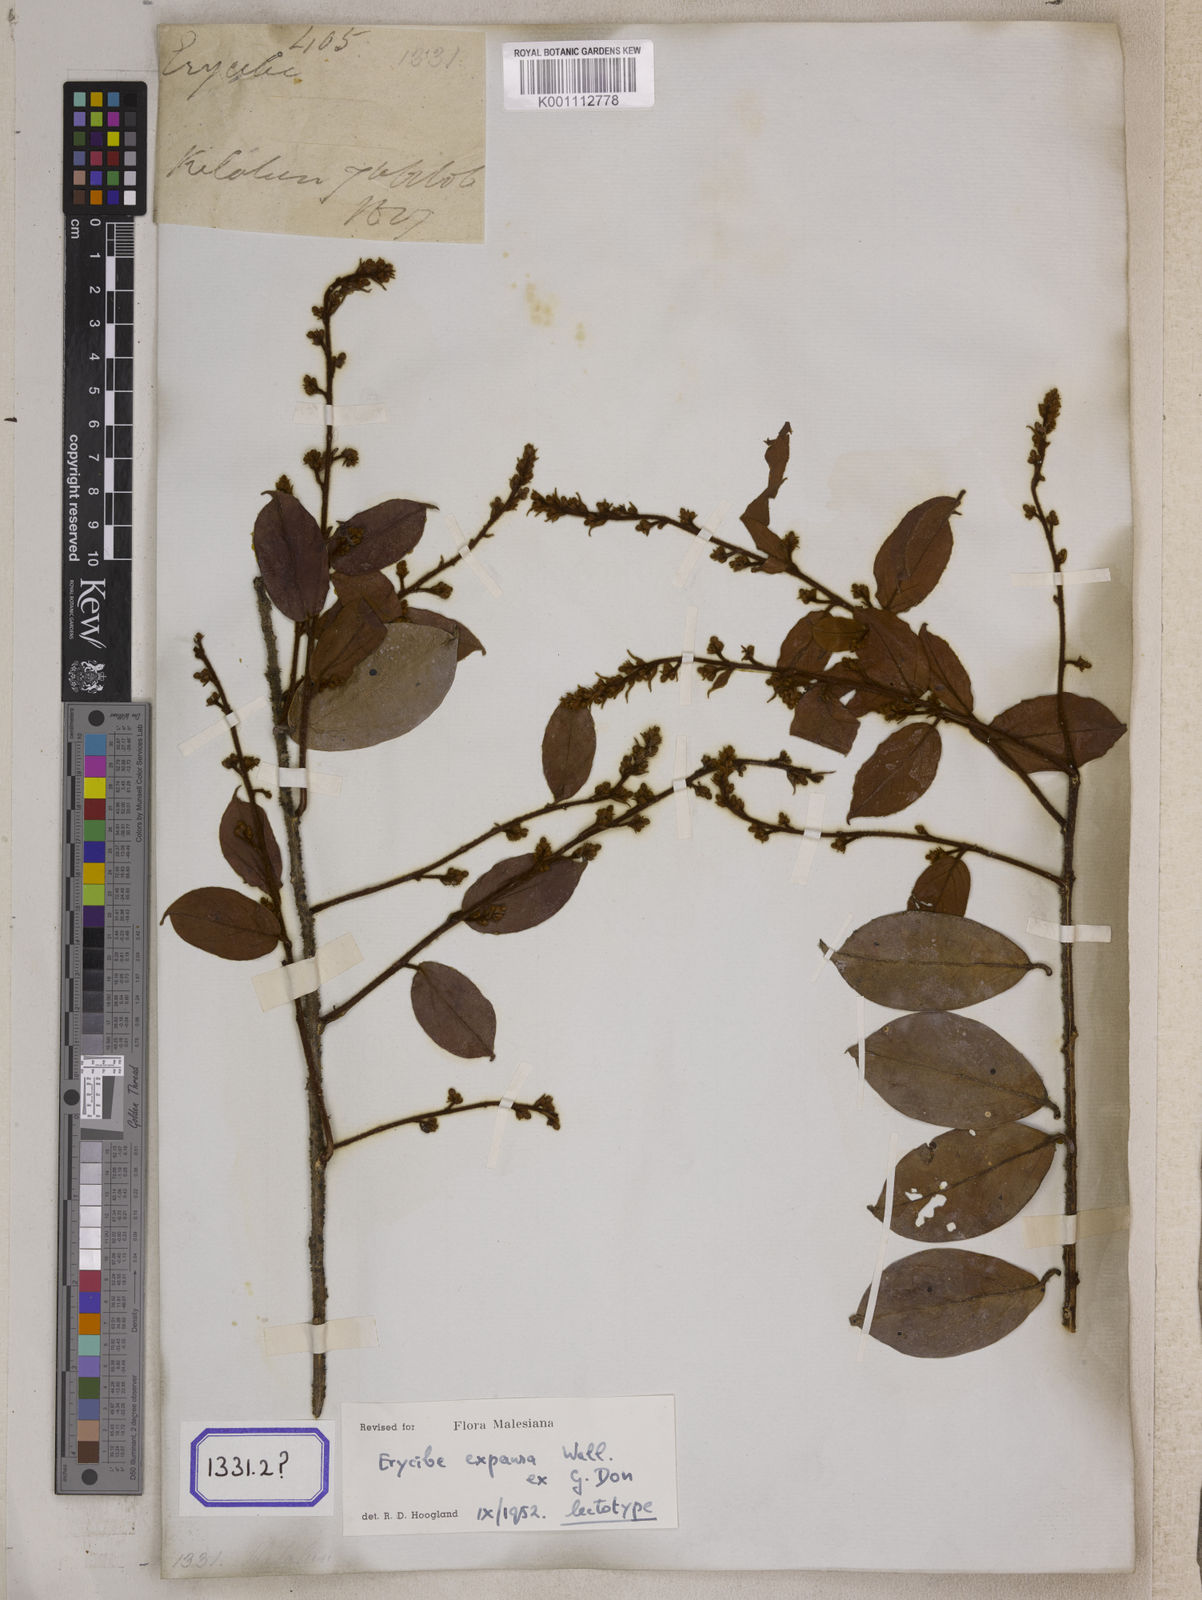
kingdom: Plantae
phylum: Tracheophyta
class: Magnoliopsida
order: Solanales
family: Convolvulaceae
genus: Erycibe
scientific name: Erycibe
